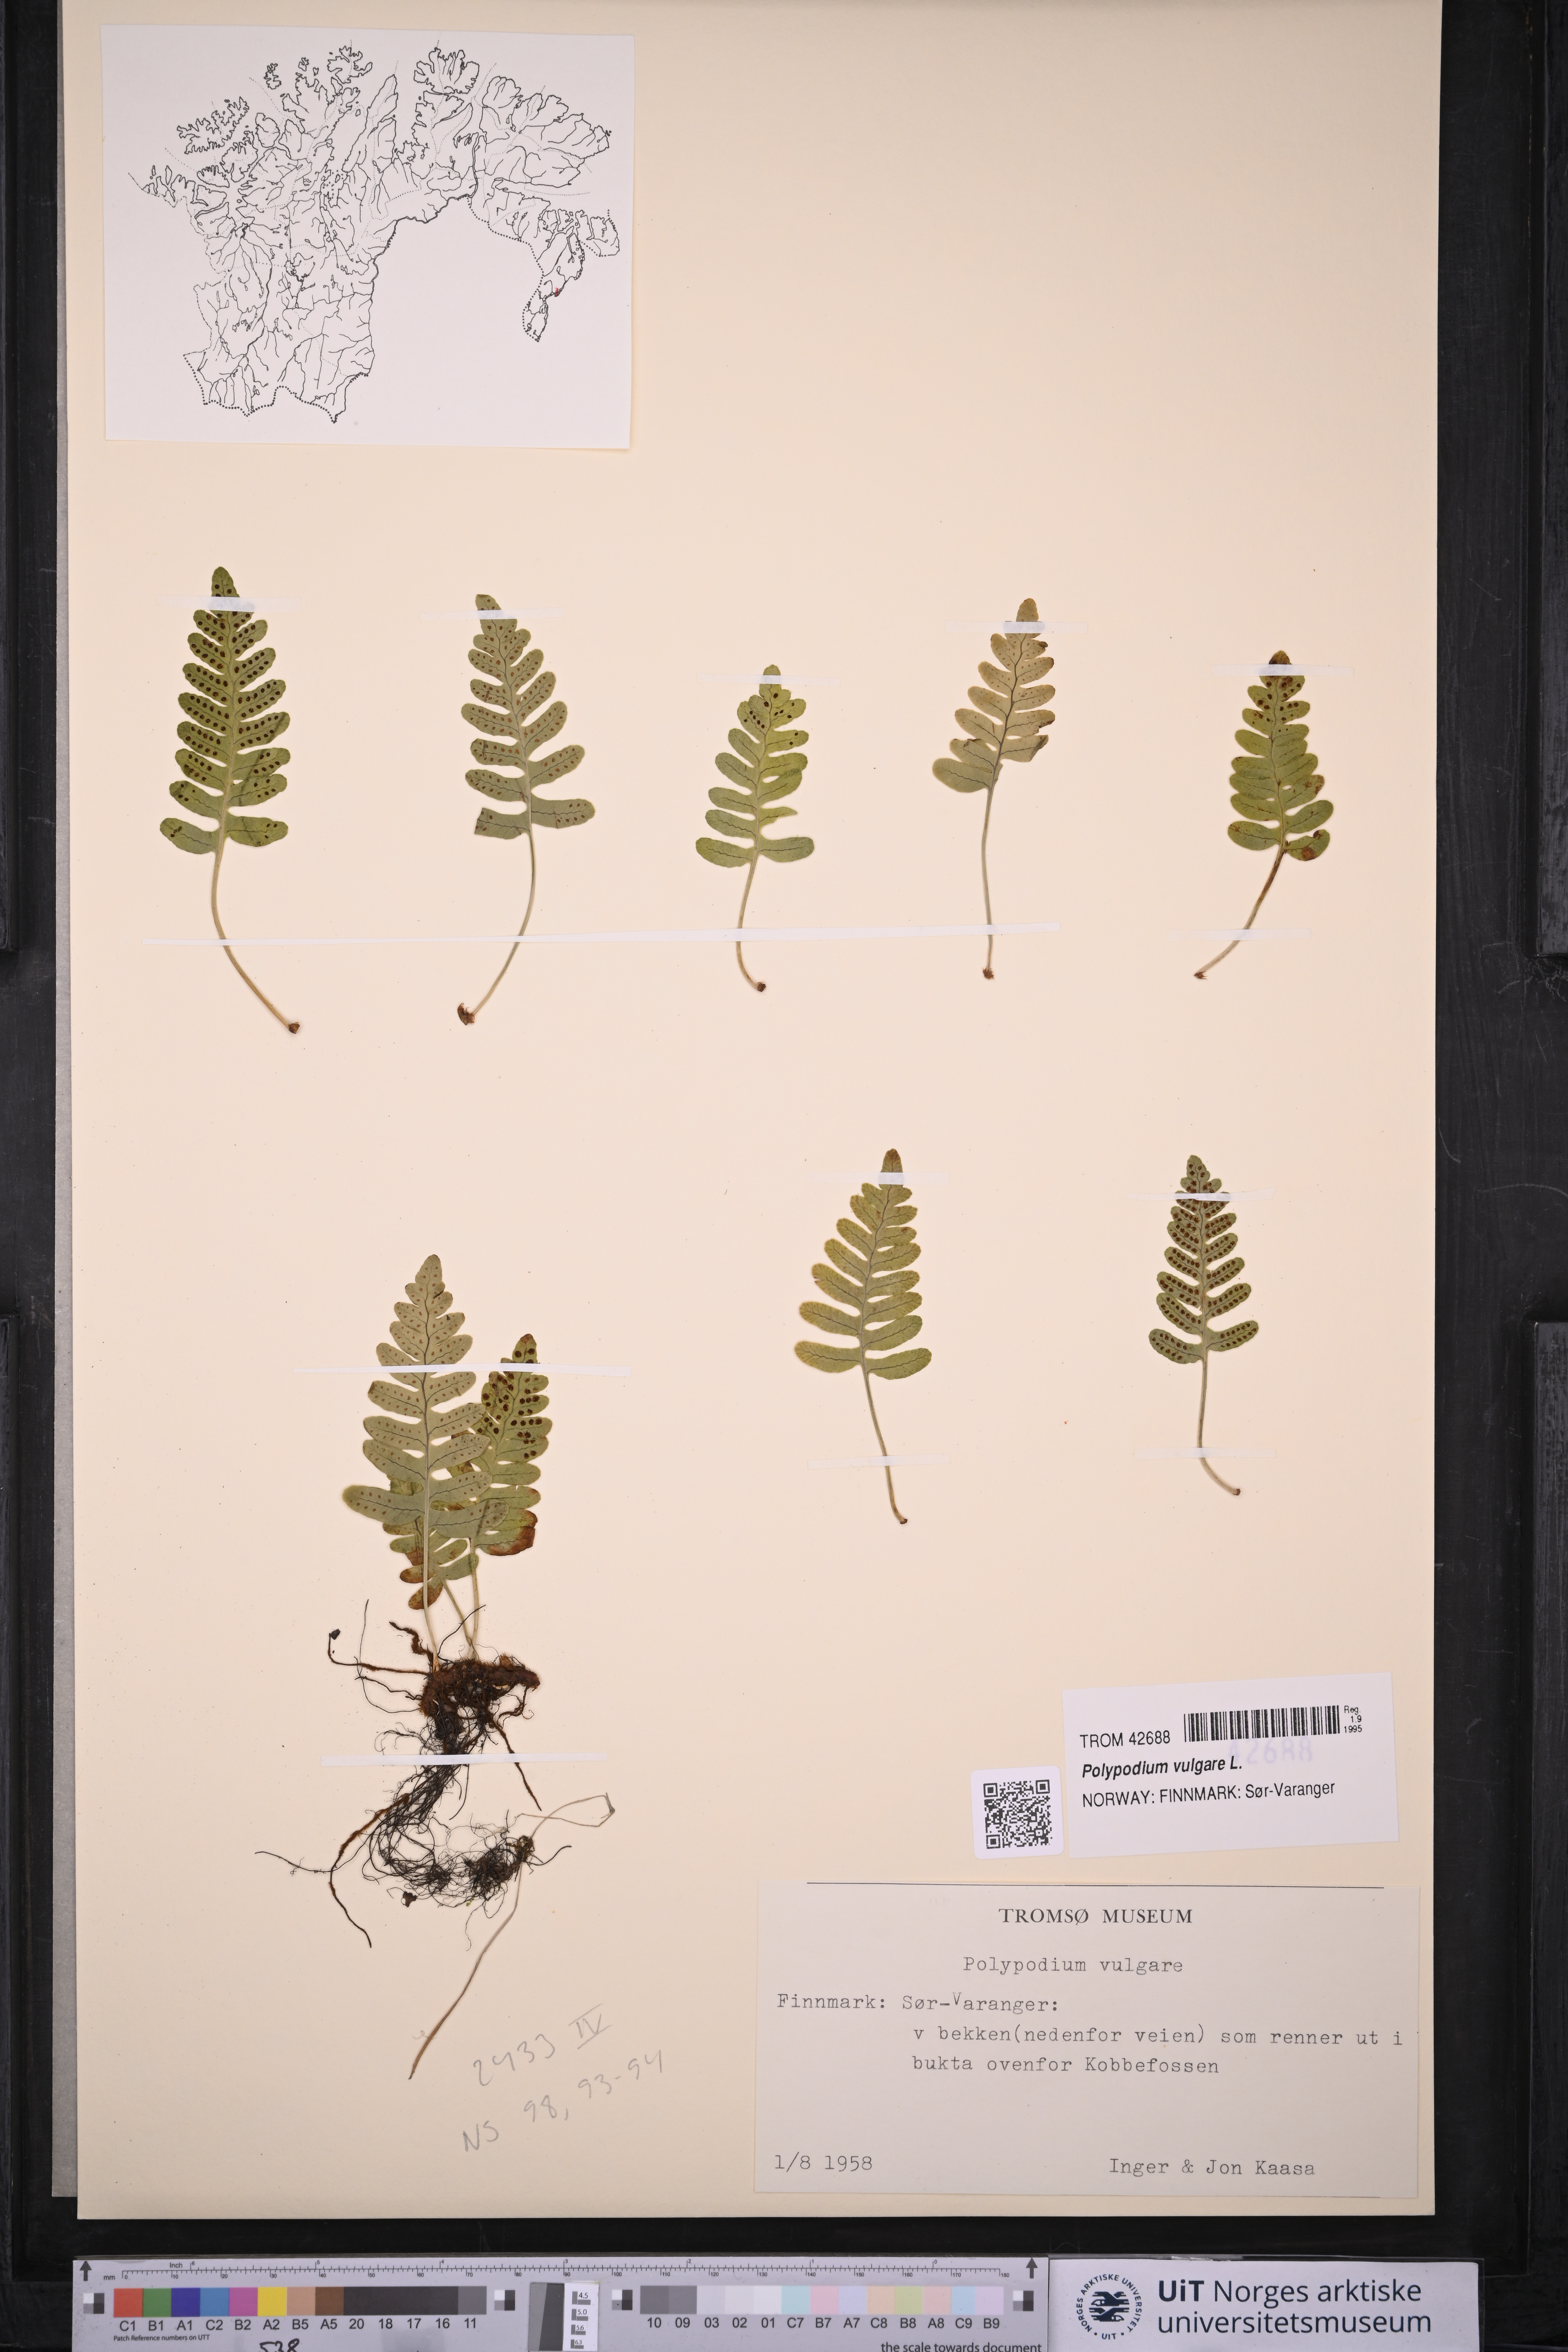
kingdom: Plantae
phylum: Tracheophyta
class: Polypodiopsida
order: Polypodiales
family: Polypodiaceae
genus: Polypodium
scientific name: Polypodium vulgare
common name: Common polypody
